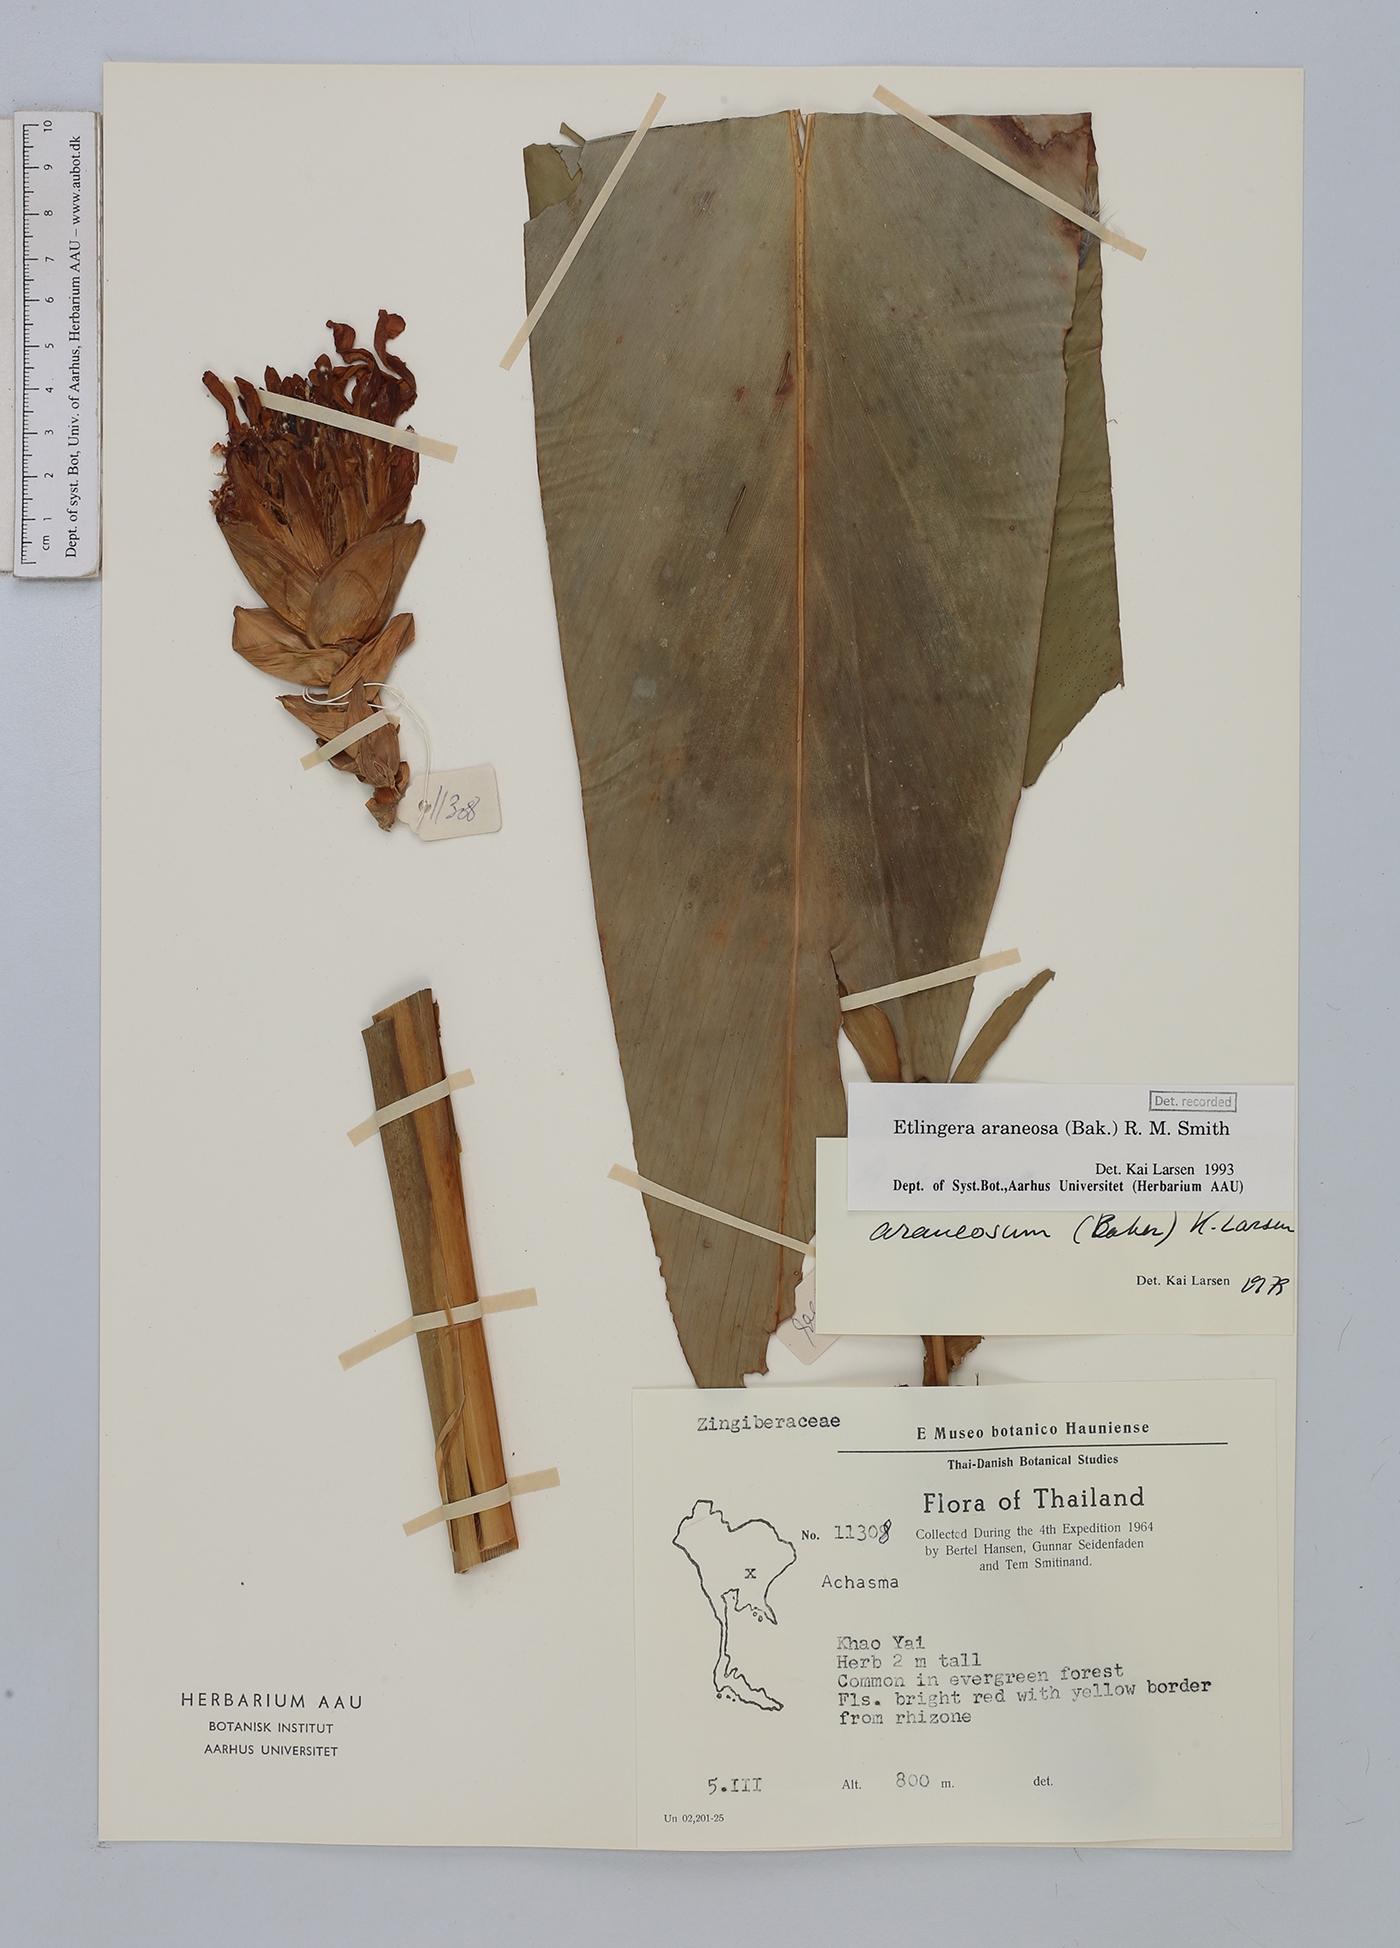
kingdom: Plantae
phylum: Tracheophyta
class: Liliopsida
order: Zingiberales
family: Zingiberaceae
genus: Etlingera
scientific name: Etlingera araneosa
